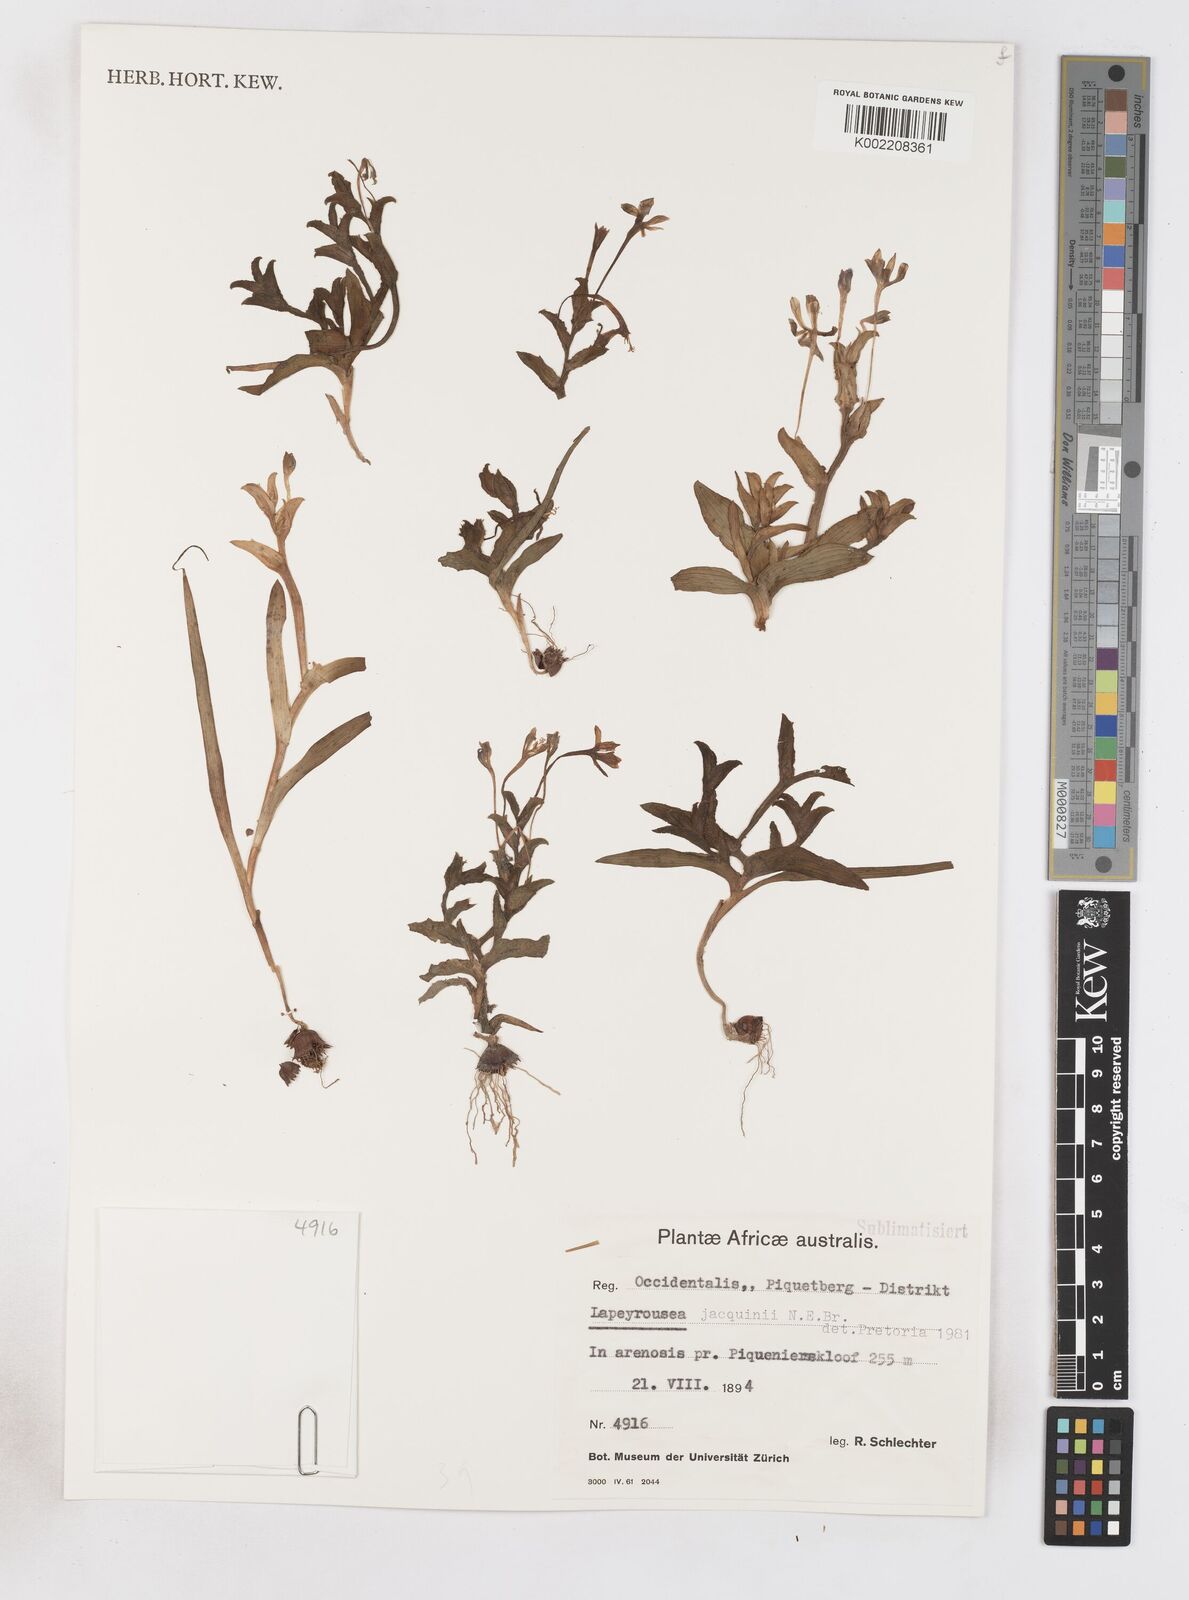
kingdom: Plantae
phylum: Tracheophyta
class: Liliopsida
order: Asparagales
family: Iridaceae
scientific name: Iridaceae
